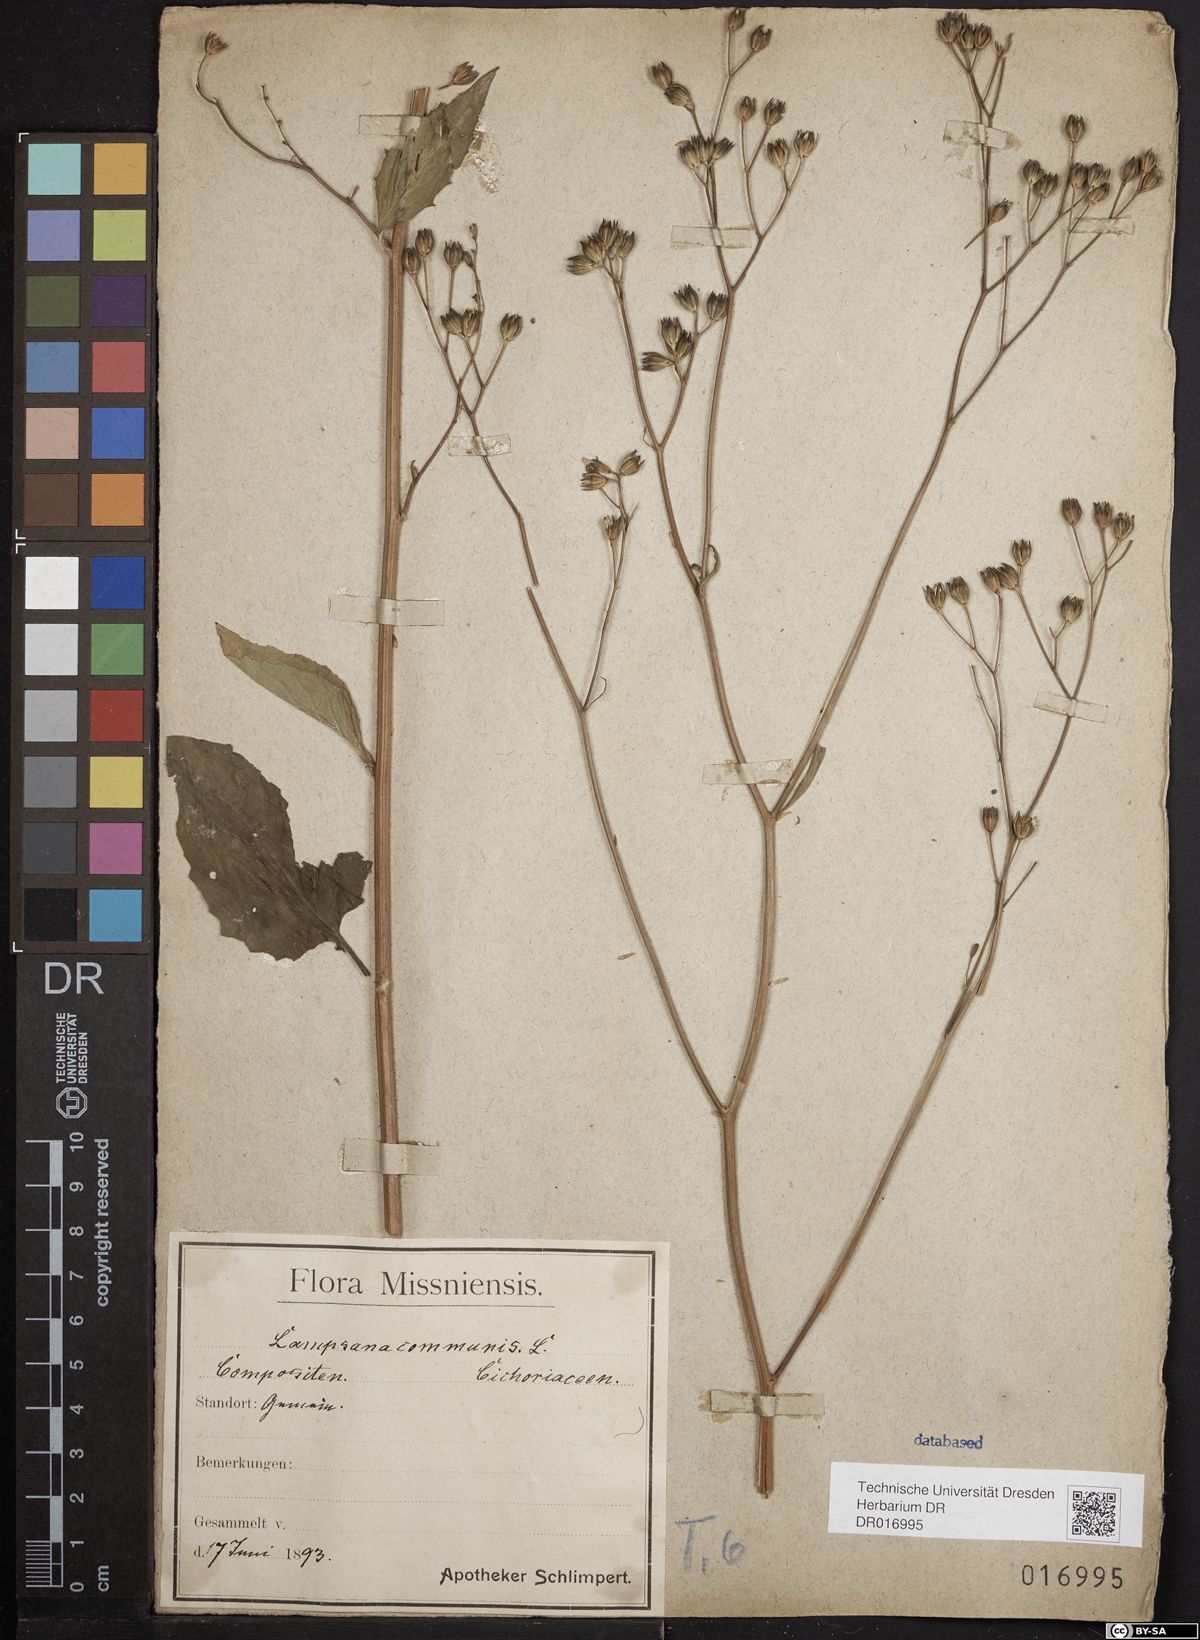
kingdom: Plantae
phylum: Tracheophyta
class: Magnoliopsida
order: Asterales
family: Asteraceae
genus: Lapsana
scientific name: Lapsana communis
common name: Nipplewort
